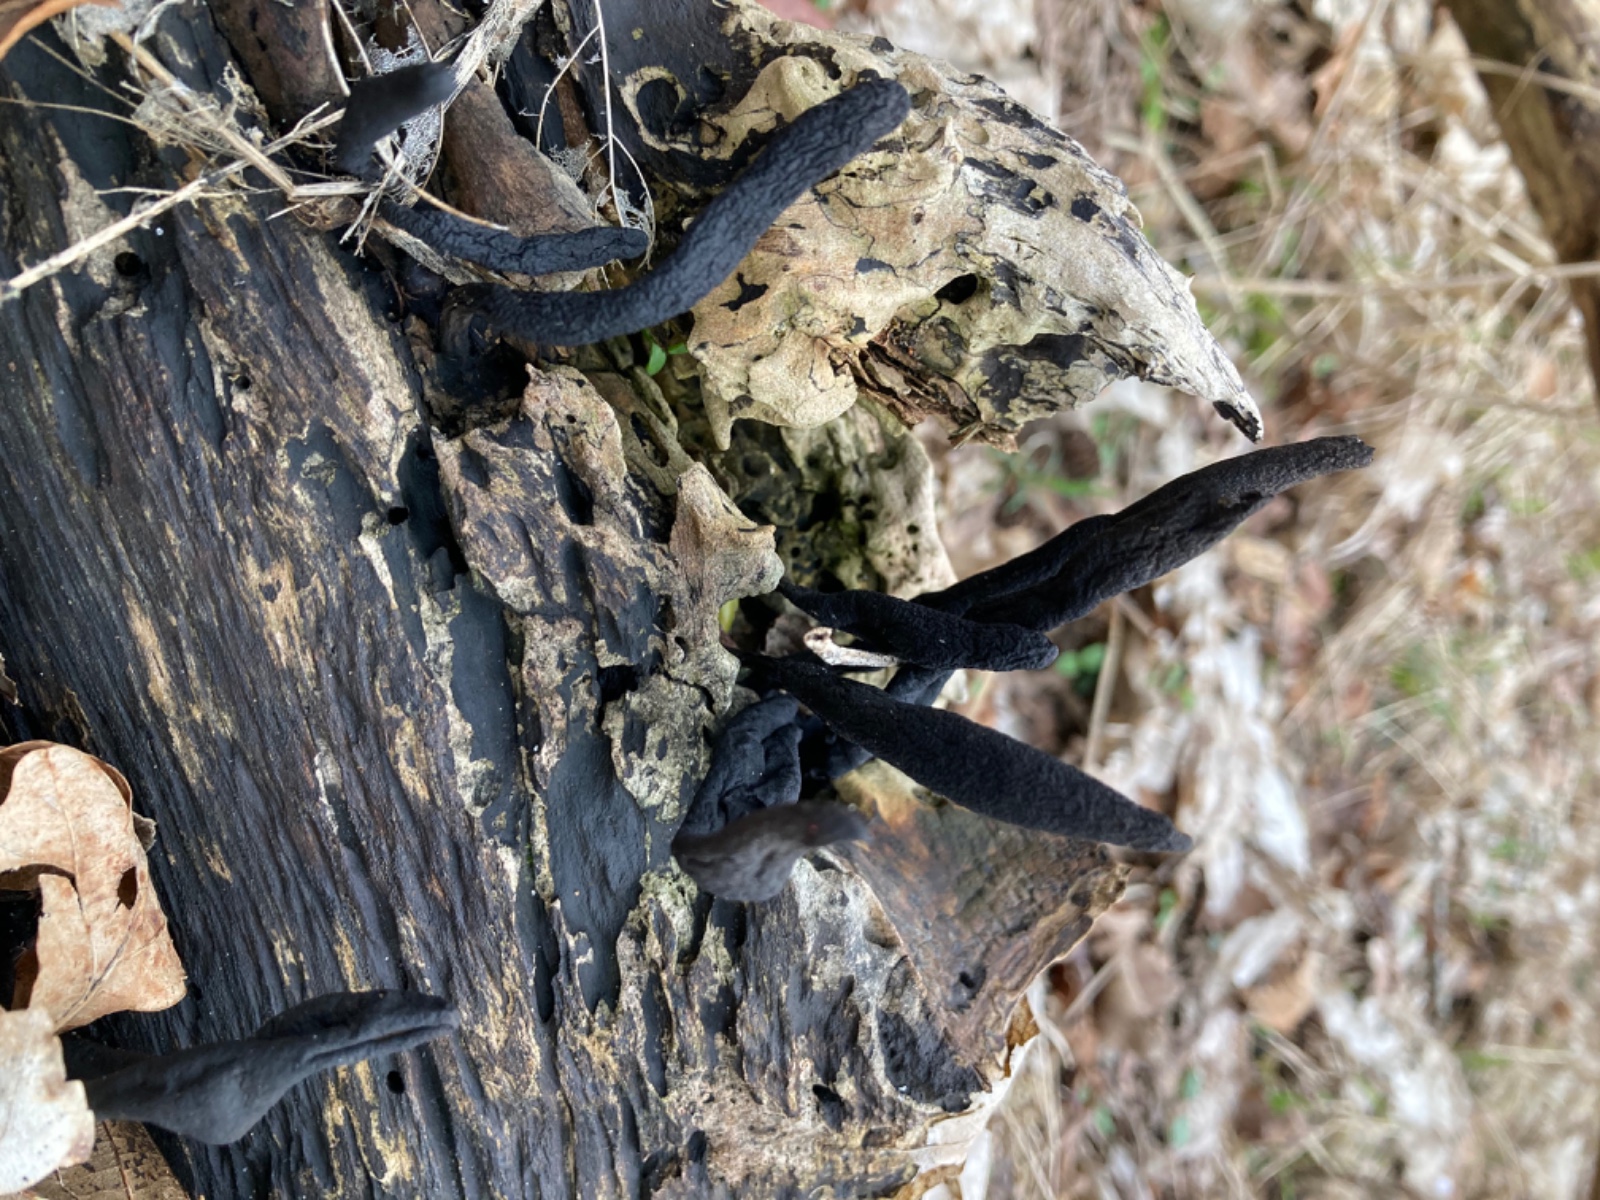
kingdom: Fungi
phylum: Ascomycota
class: Sordariomycetes
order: Xylariales
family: Xylariaceae
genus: Xylaria
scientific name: Xylaria longipes
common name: slank stødsvamp
